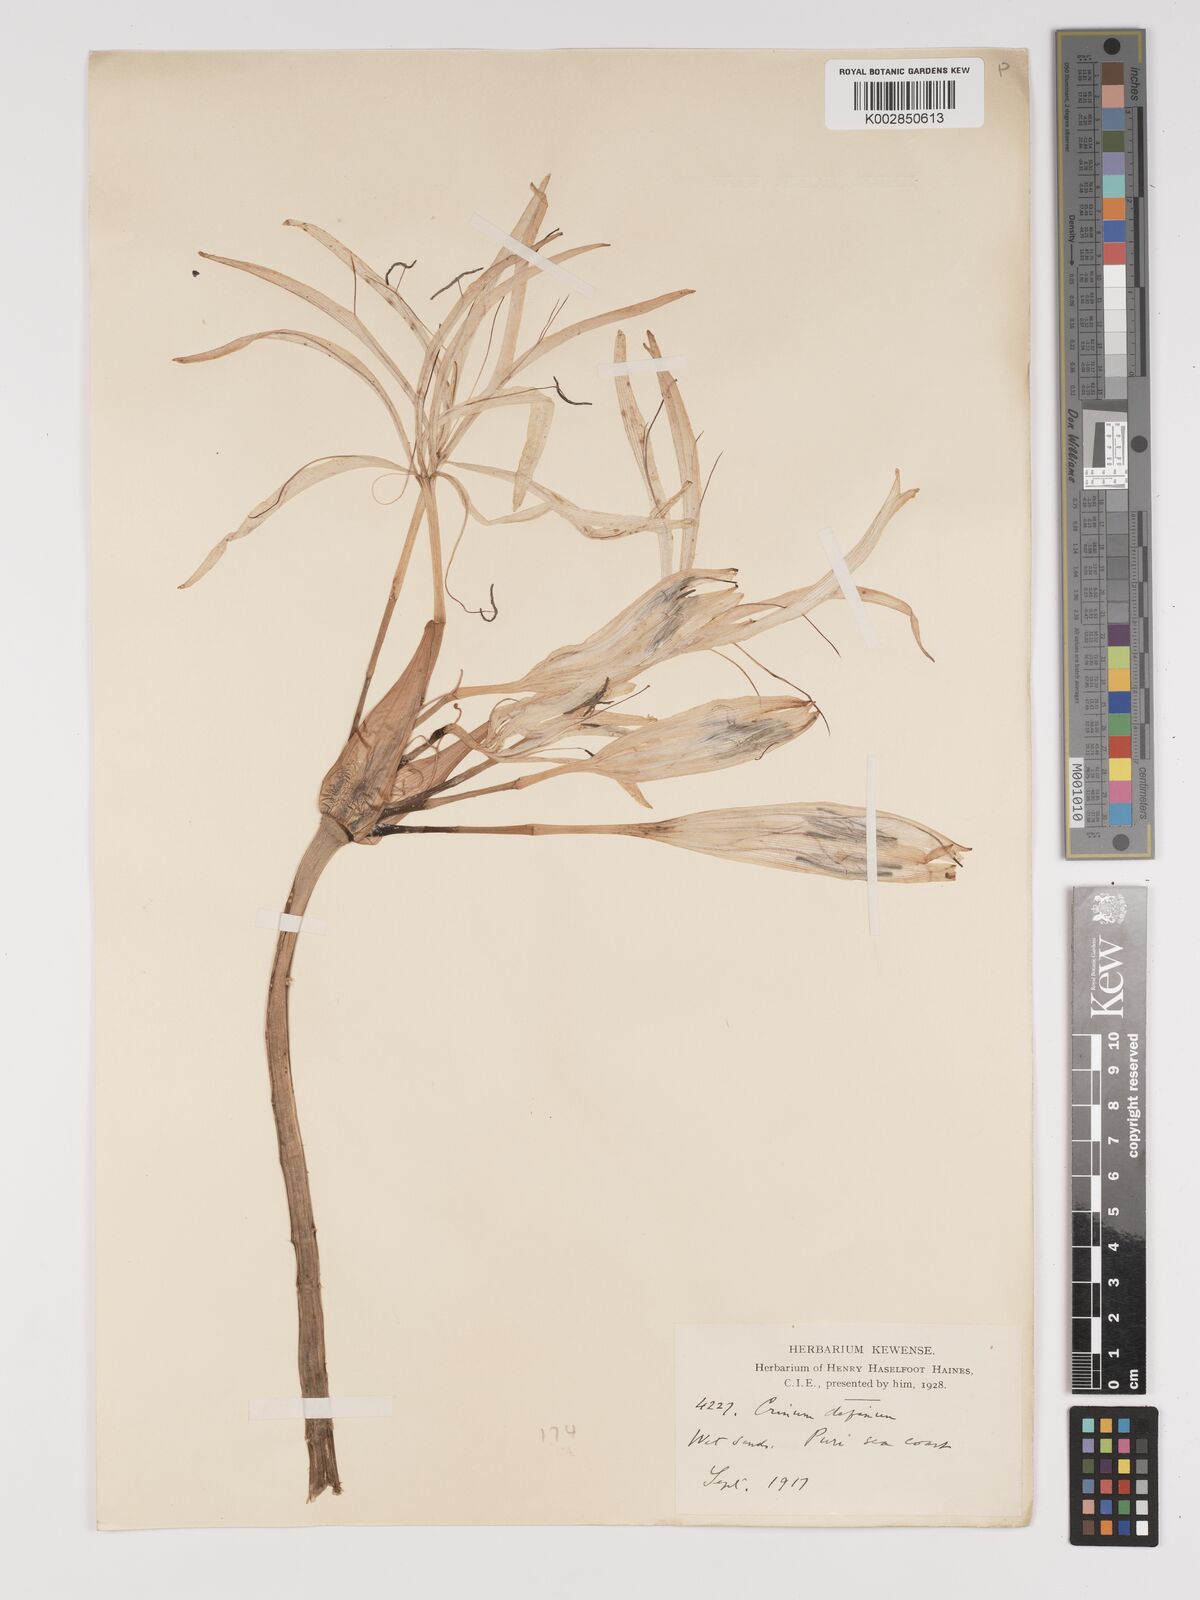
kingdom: Plantae
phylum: Tracheophyta
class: Liliopsida
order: Asparagales
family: Amaryllidaceae
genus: Crinum
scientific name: Crinum defixum
